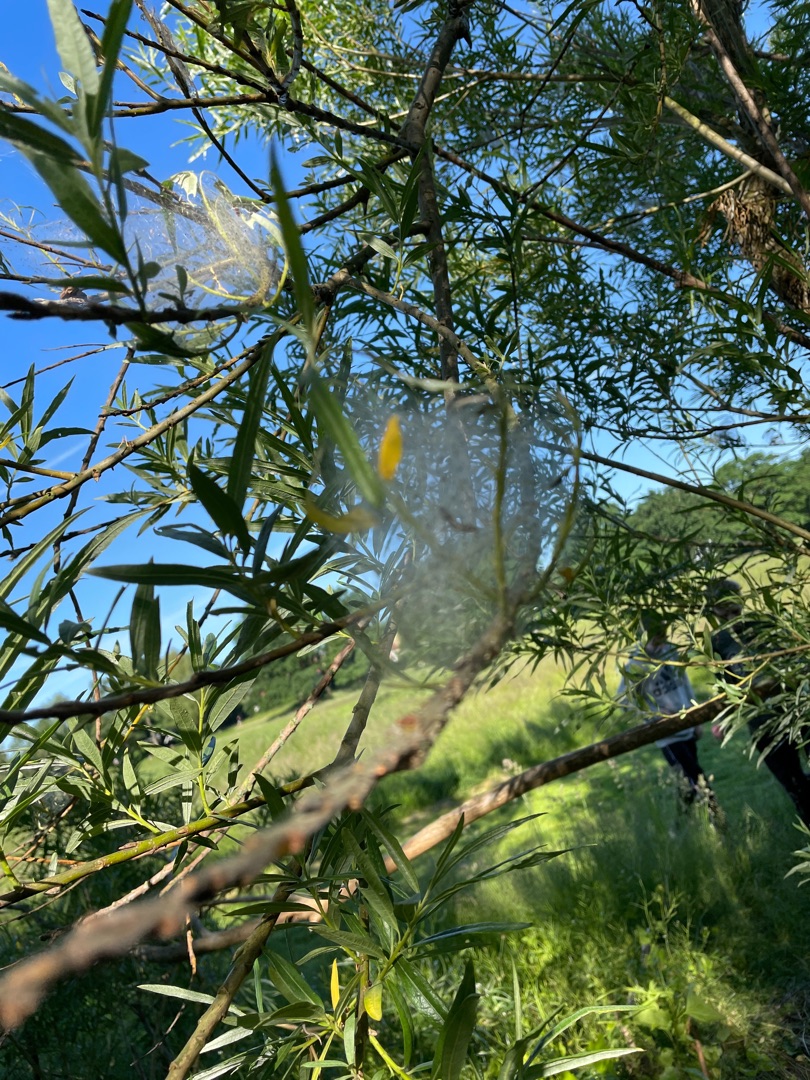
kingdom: Plantae
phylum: Tracheophyta
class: Magnoliopsida
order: Malpighiales
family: Salicaceae
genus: Salix
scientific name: Salix viminalis
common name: Bånd-pil
